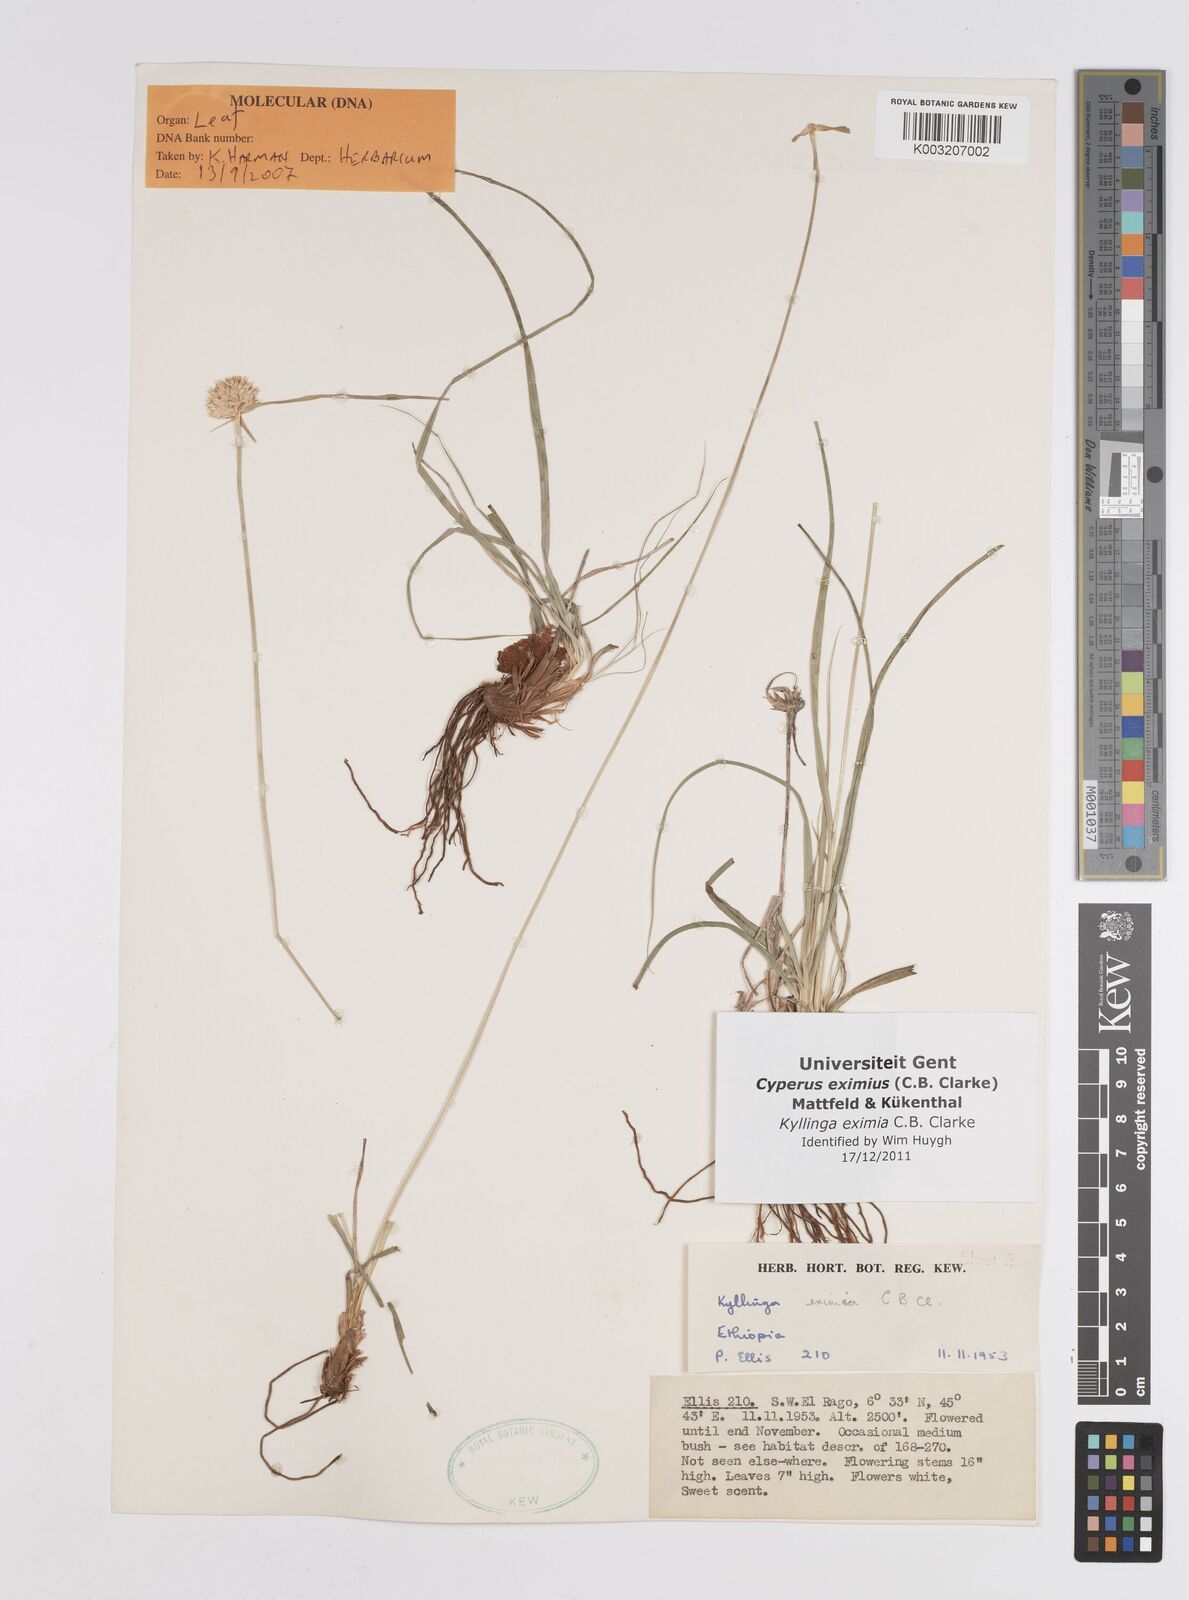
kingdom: Plantae
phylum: Tracheophyta
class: Liliopsida
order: Poales
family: Cyperaceae
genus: Cyperus
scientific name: Cyperus eximius
